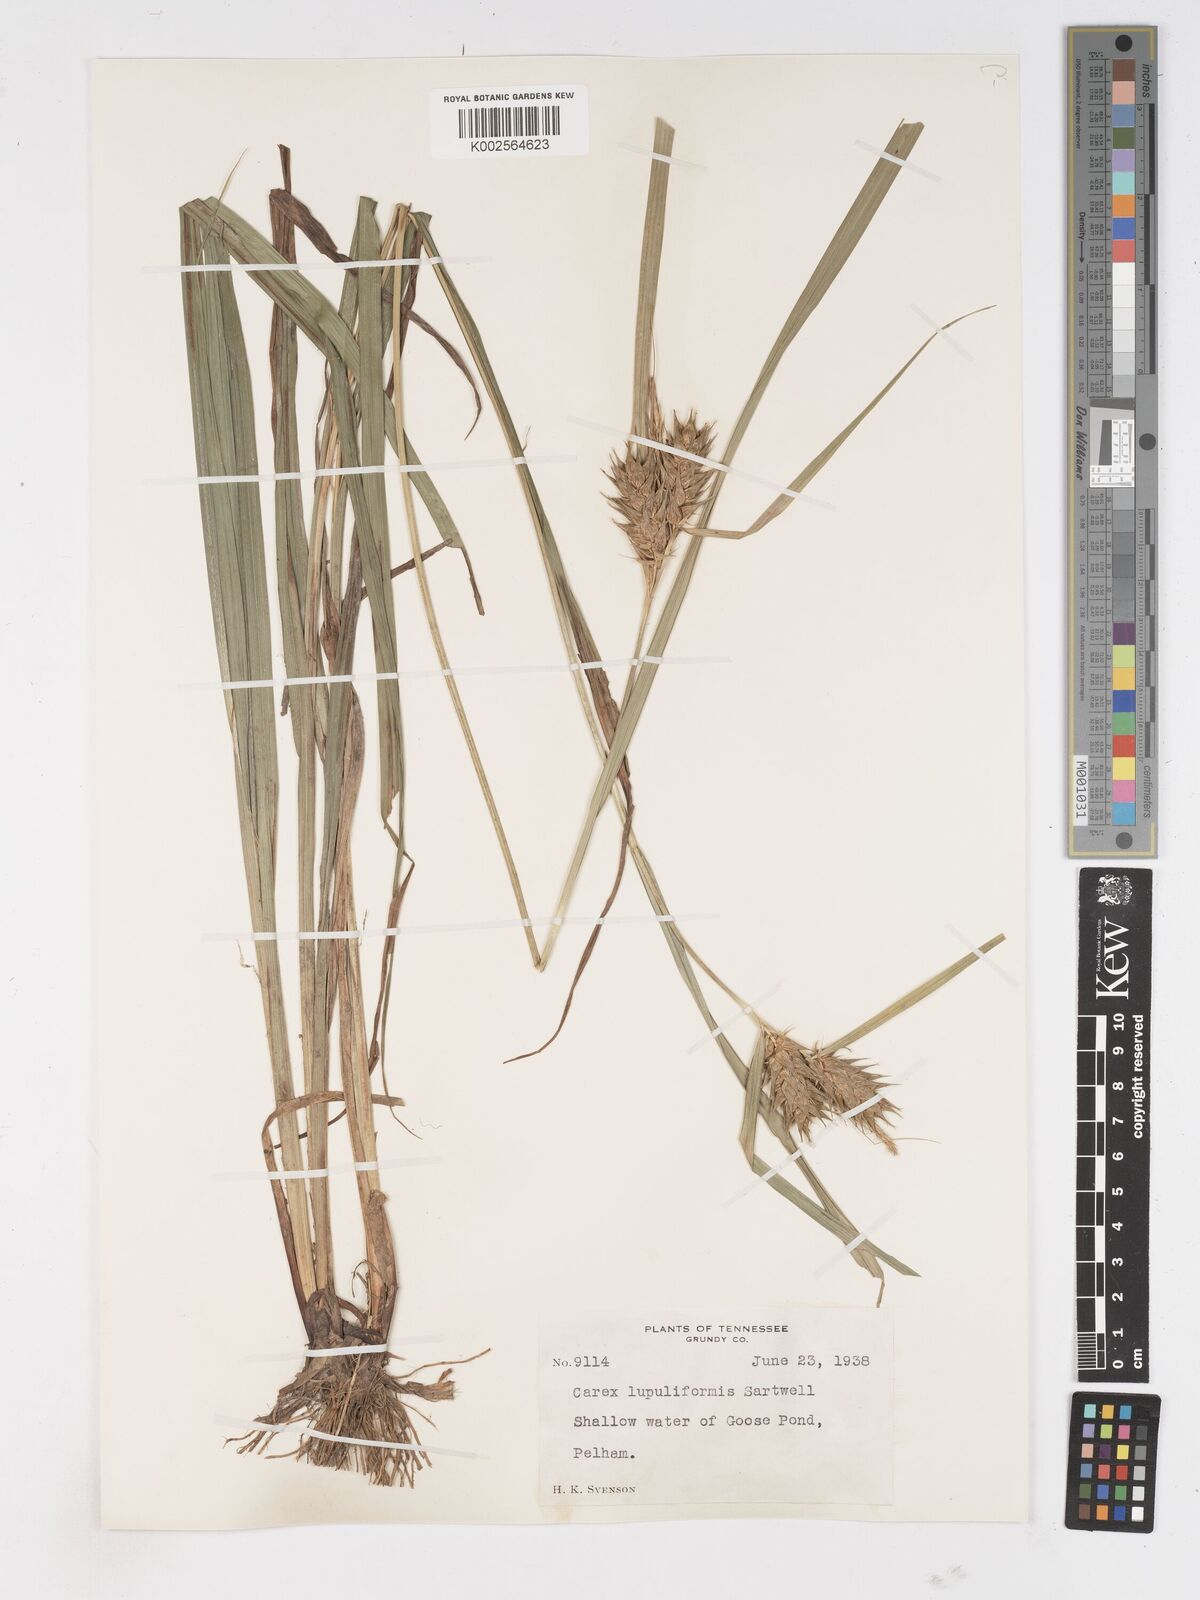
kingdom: Plantae
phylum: Tracheophyta
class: Liliopsida
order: Poales
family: Cyperaceae
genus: Carex
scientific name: Carex lupuliformis
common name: False hop sedge
